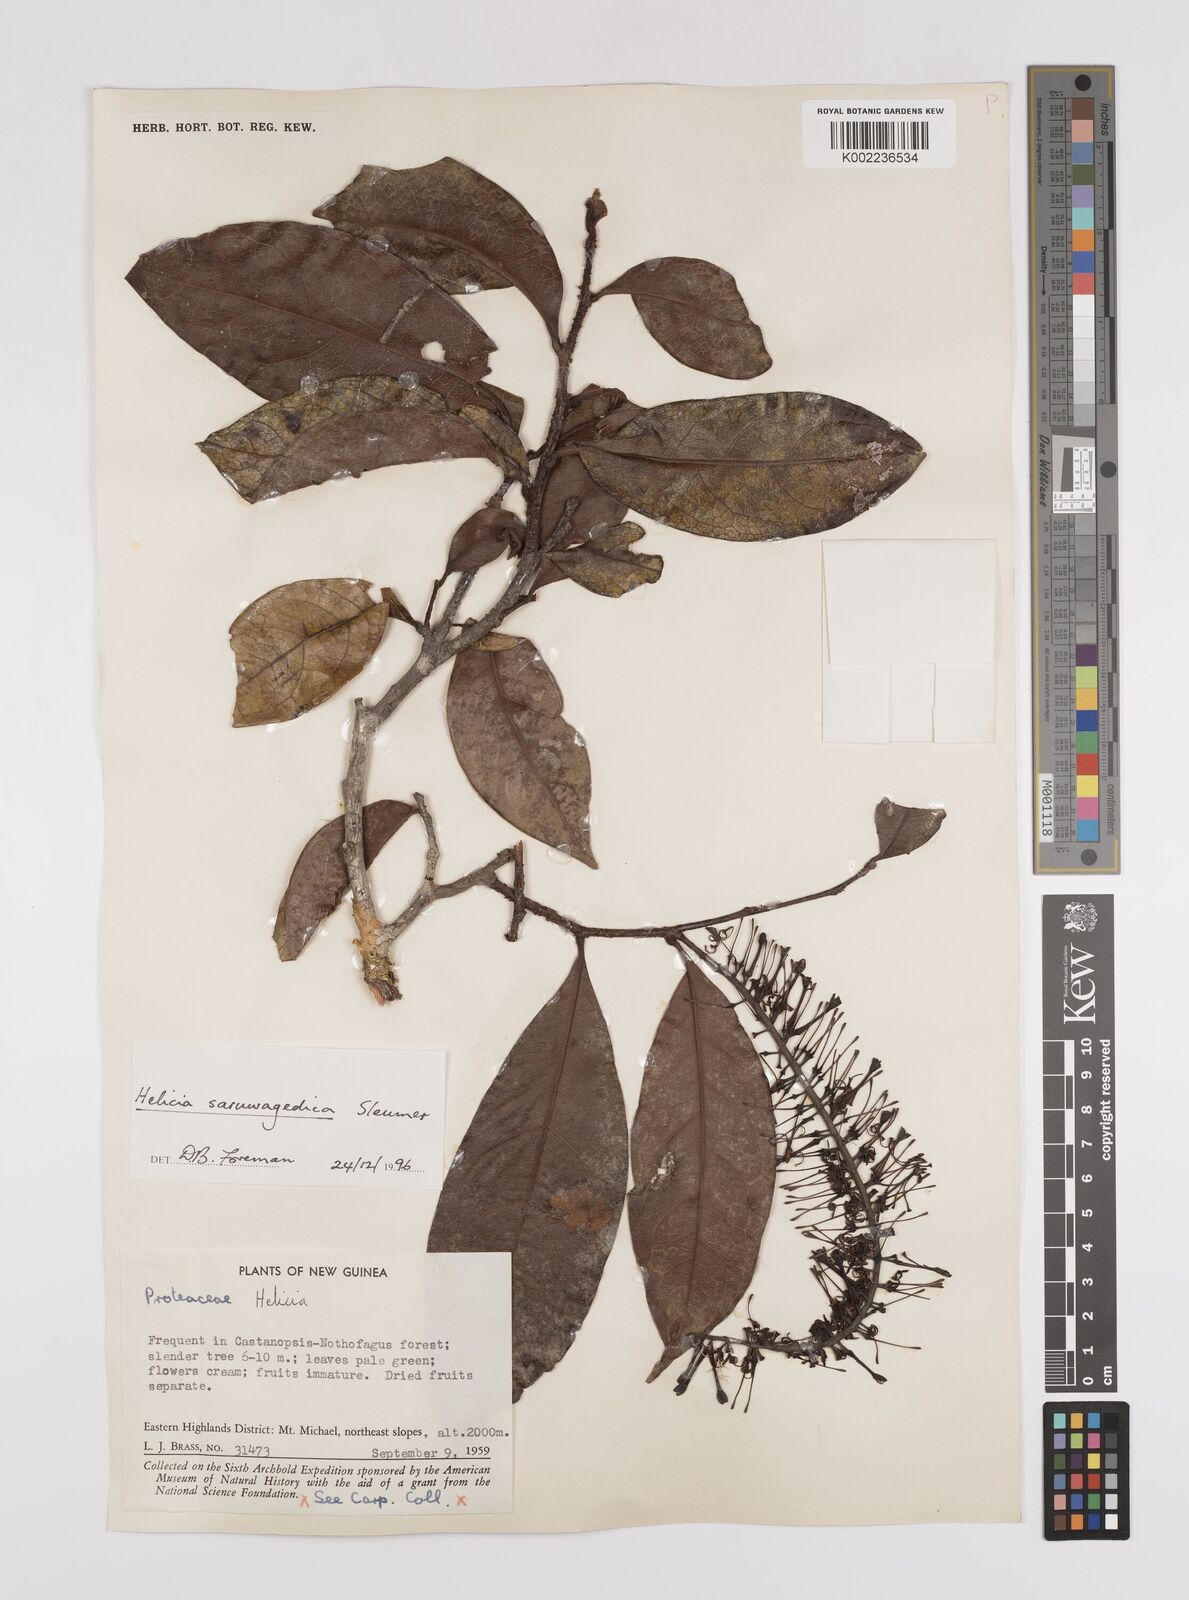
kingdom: Plantae
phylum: Tracheophyta
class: Magnoliopsida
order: Proteales
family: Proteaceae
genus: Helicia
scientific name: Helicia saruwagedica
